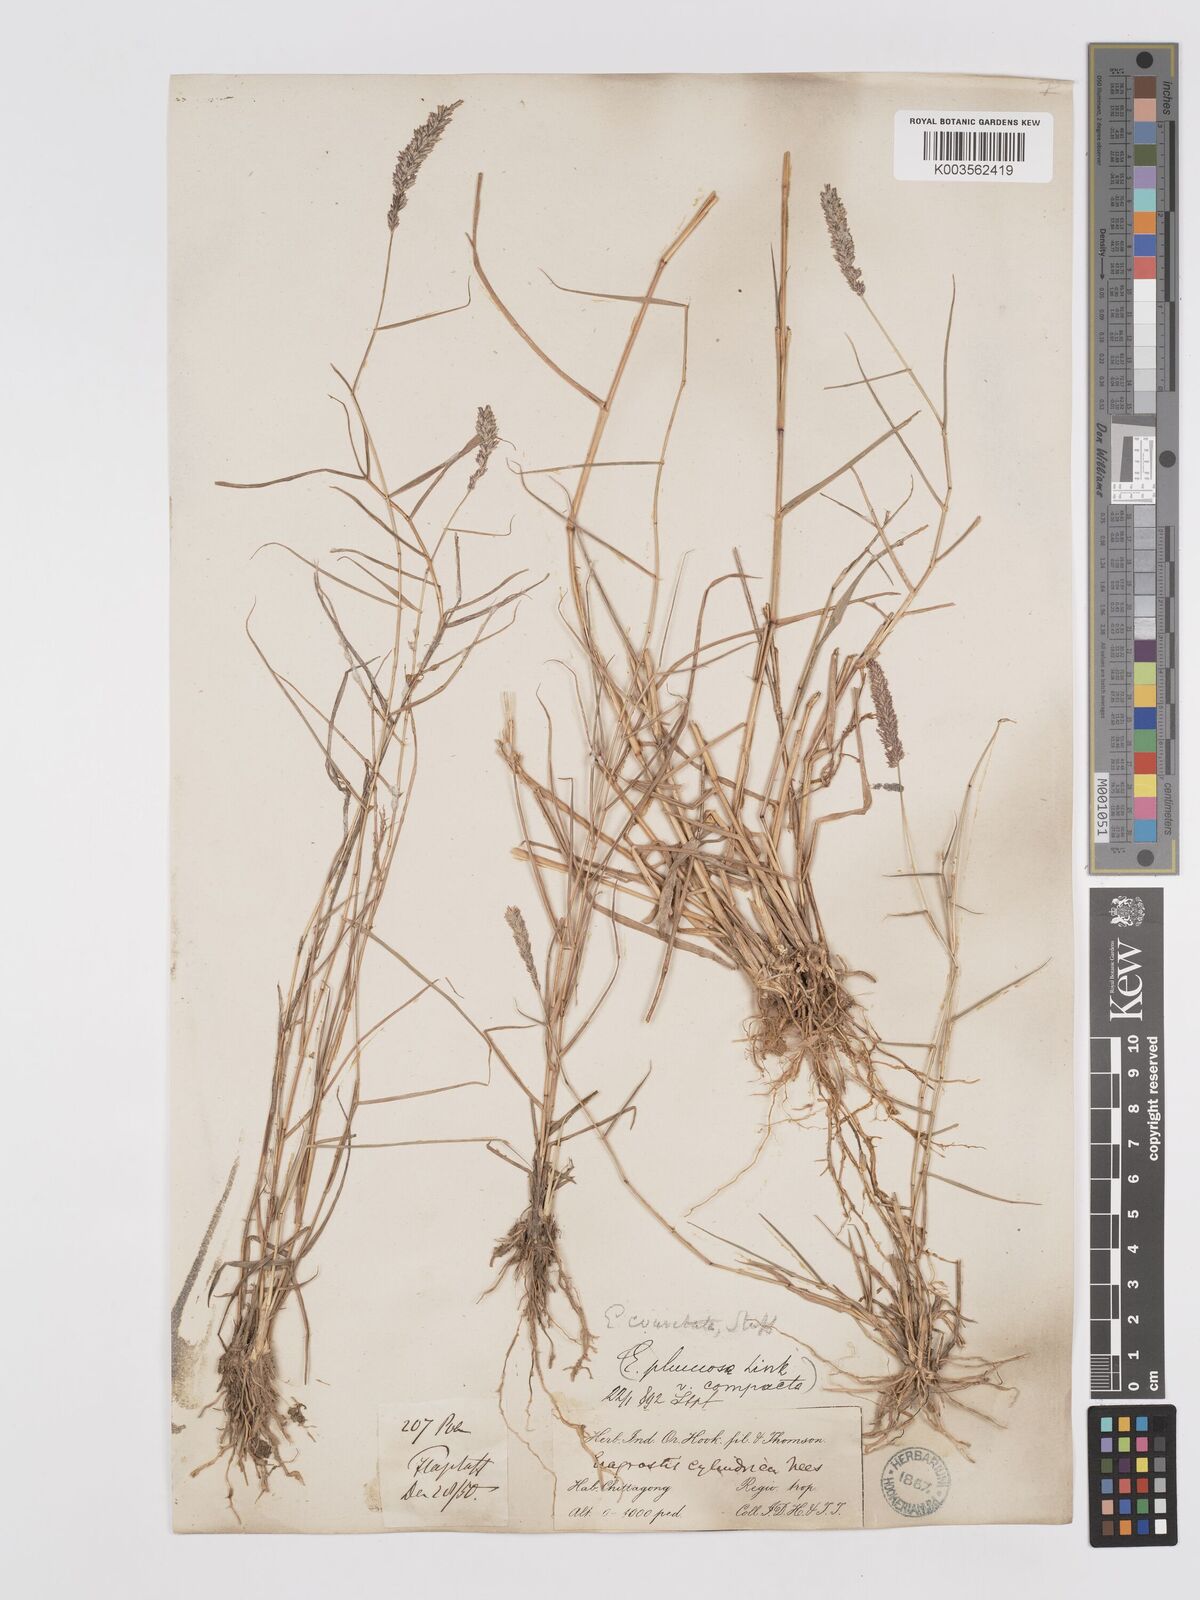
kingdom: Plantae
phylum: Tracheophyta
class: Liliopsida
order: Poales
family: Poaceae
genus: Eragrostis
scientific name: Eragrostis coarctata
